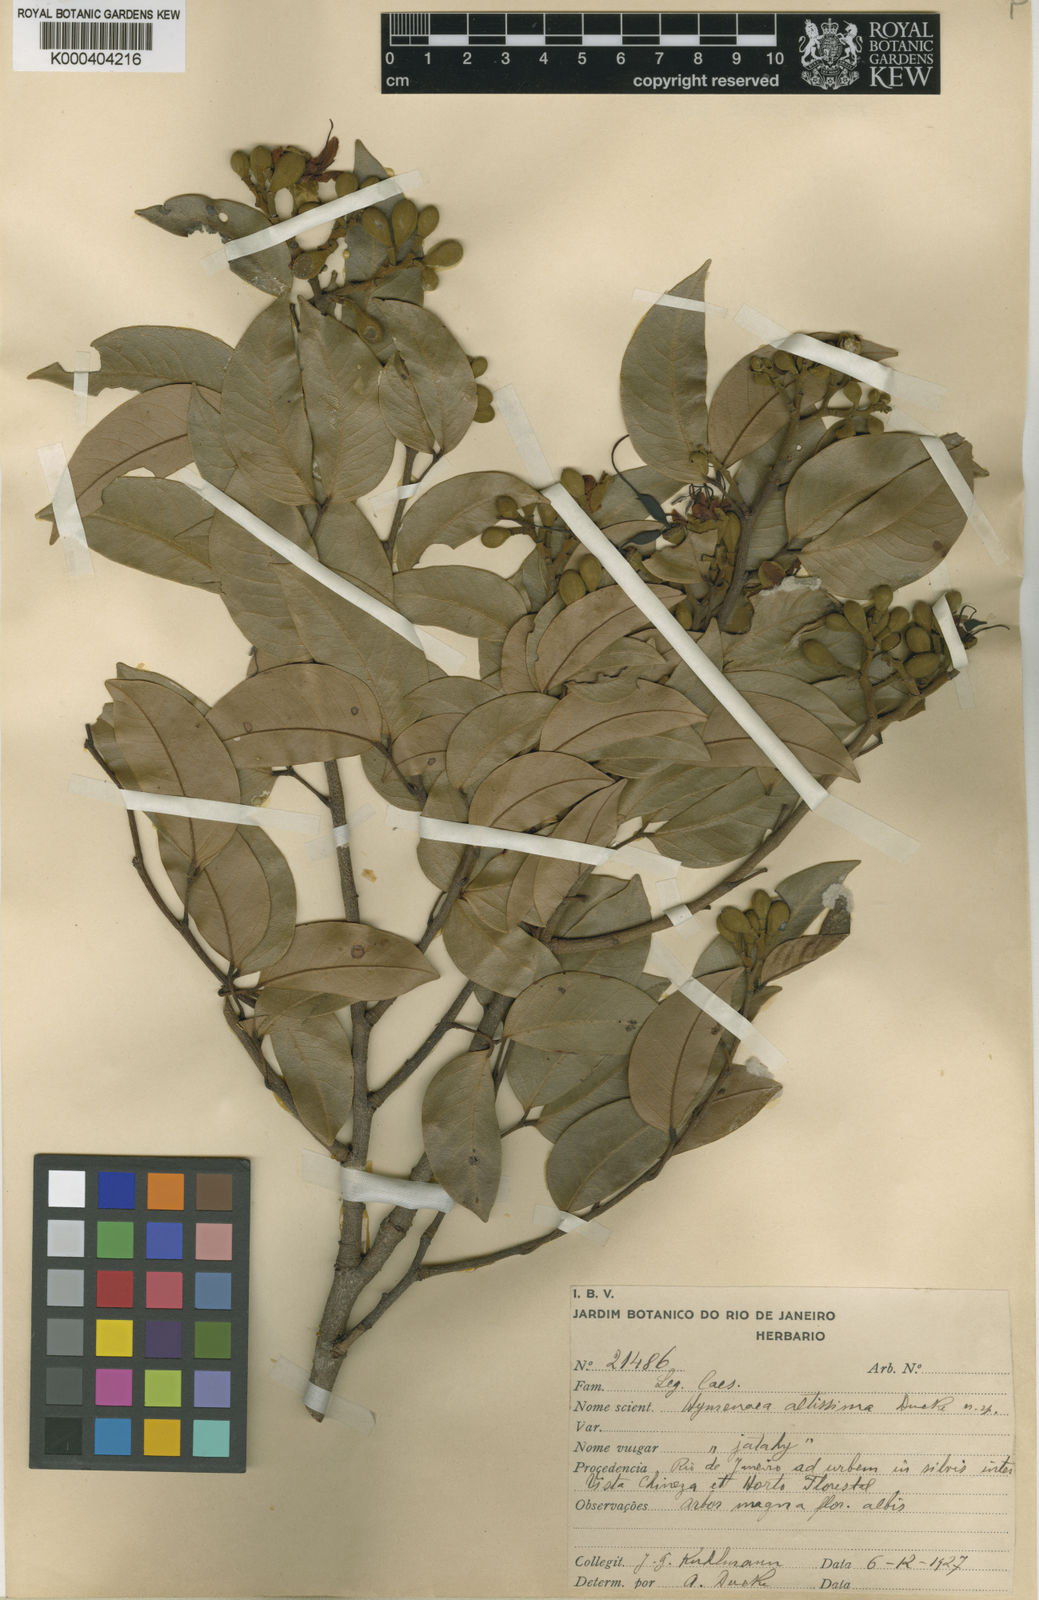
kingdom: Plantae
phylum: Tracheophyta
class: Magnoliopsida
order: Fabales
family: Fabaceae
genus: Hymenaea
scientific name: Hymenaea altissima
